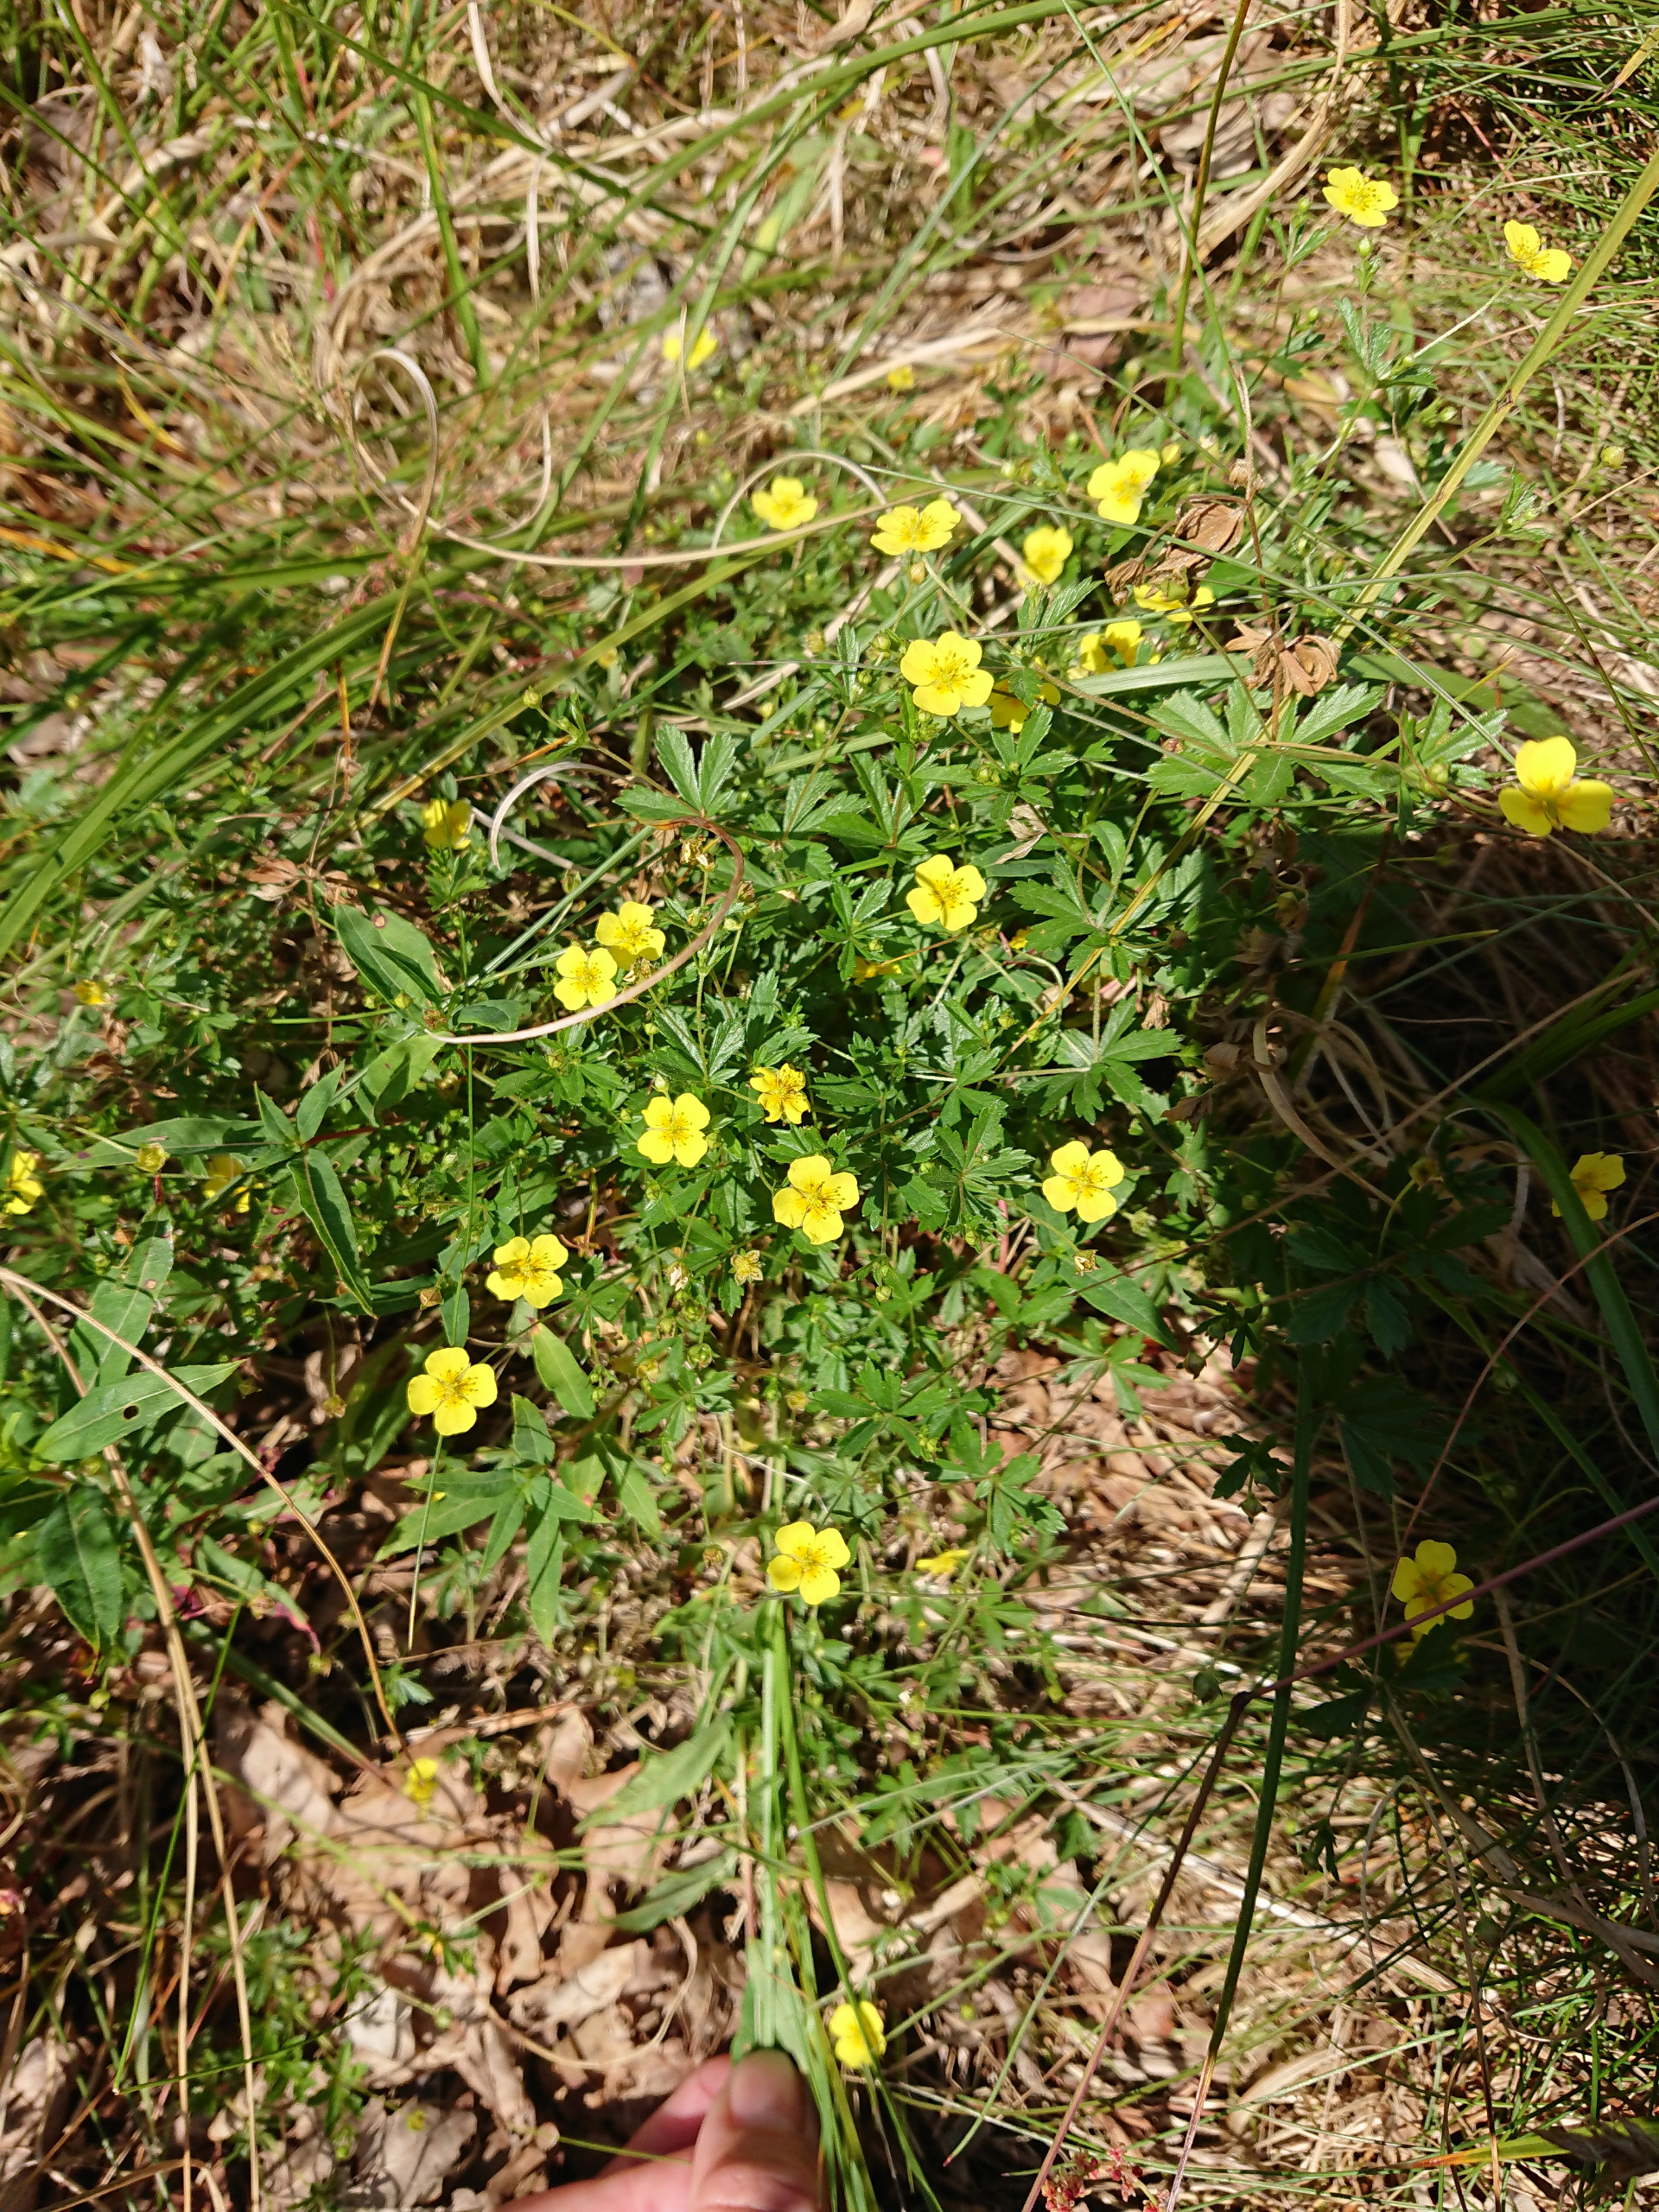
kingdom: Plantae
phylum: Tracheophyta
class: Magnoliopsida
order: Rosales
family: Rosaceae
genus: Potentilla
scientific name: Potentilla erecta
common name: Tormentil
